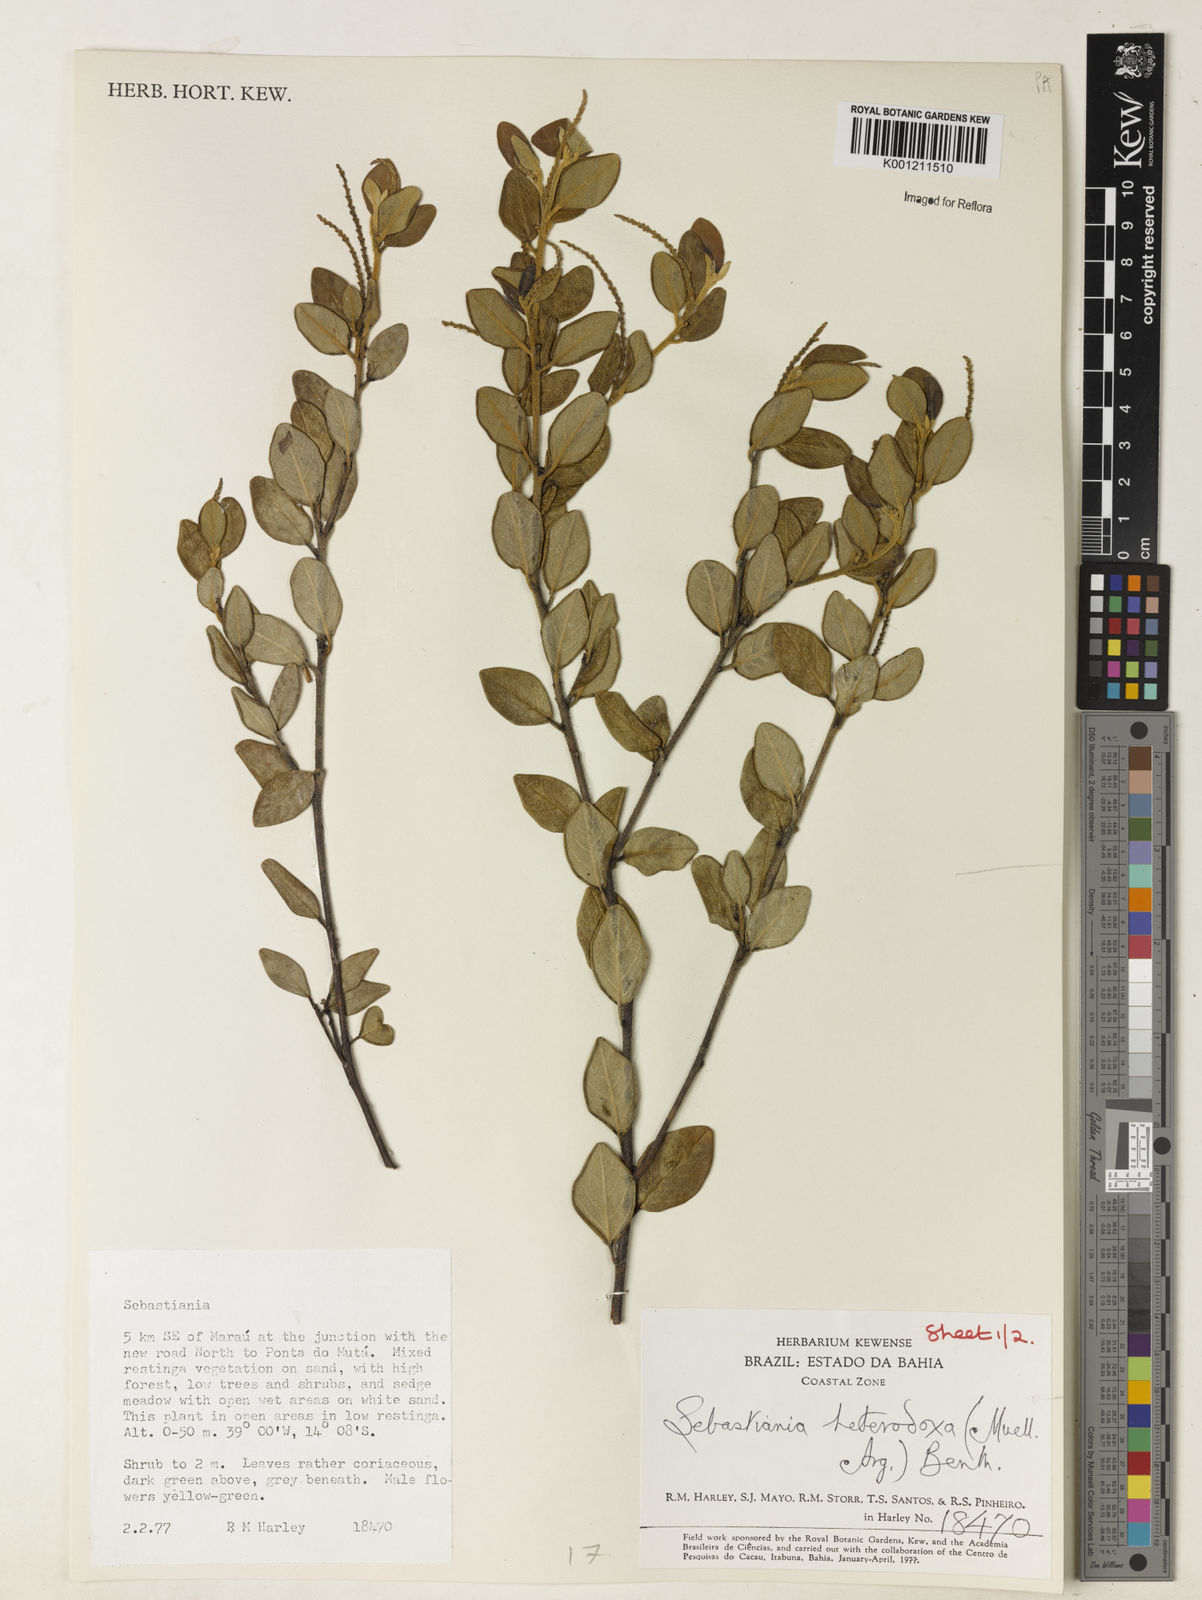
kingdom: Plantae
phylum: Tracheophyta
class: Magnoliopsida
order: Malpighiales
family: Euphorbiaceae
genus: Microstachys
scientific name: Microstachys
